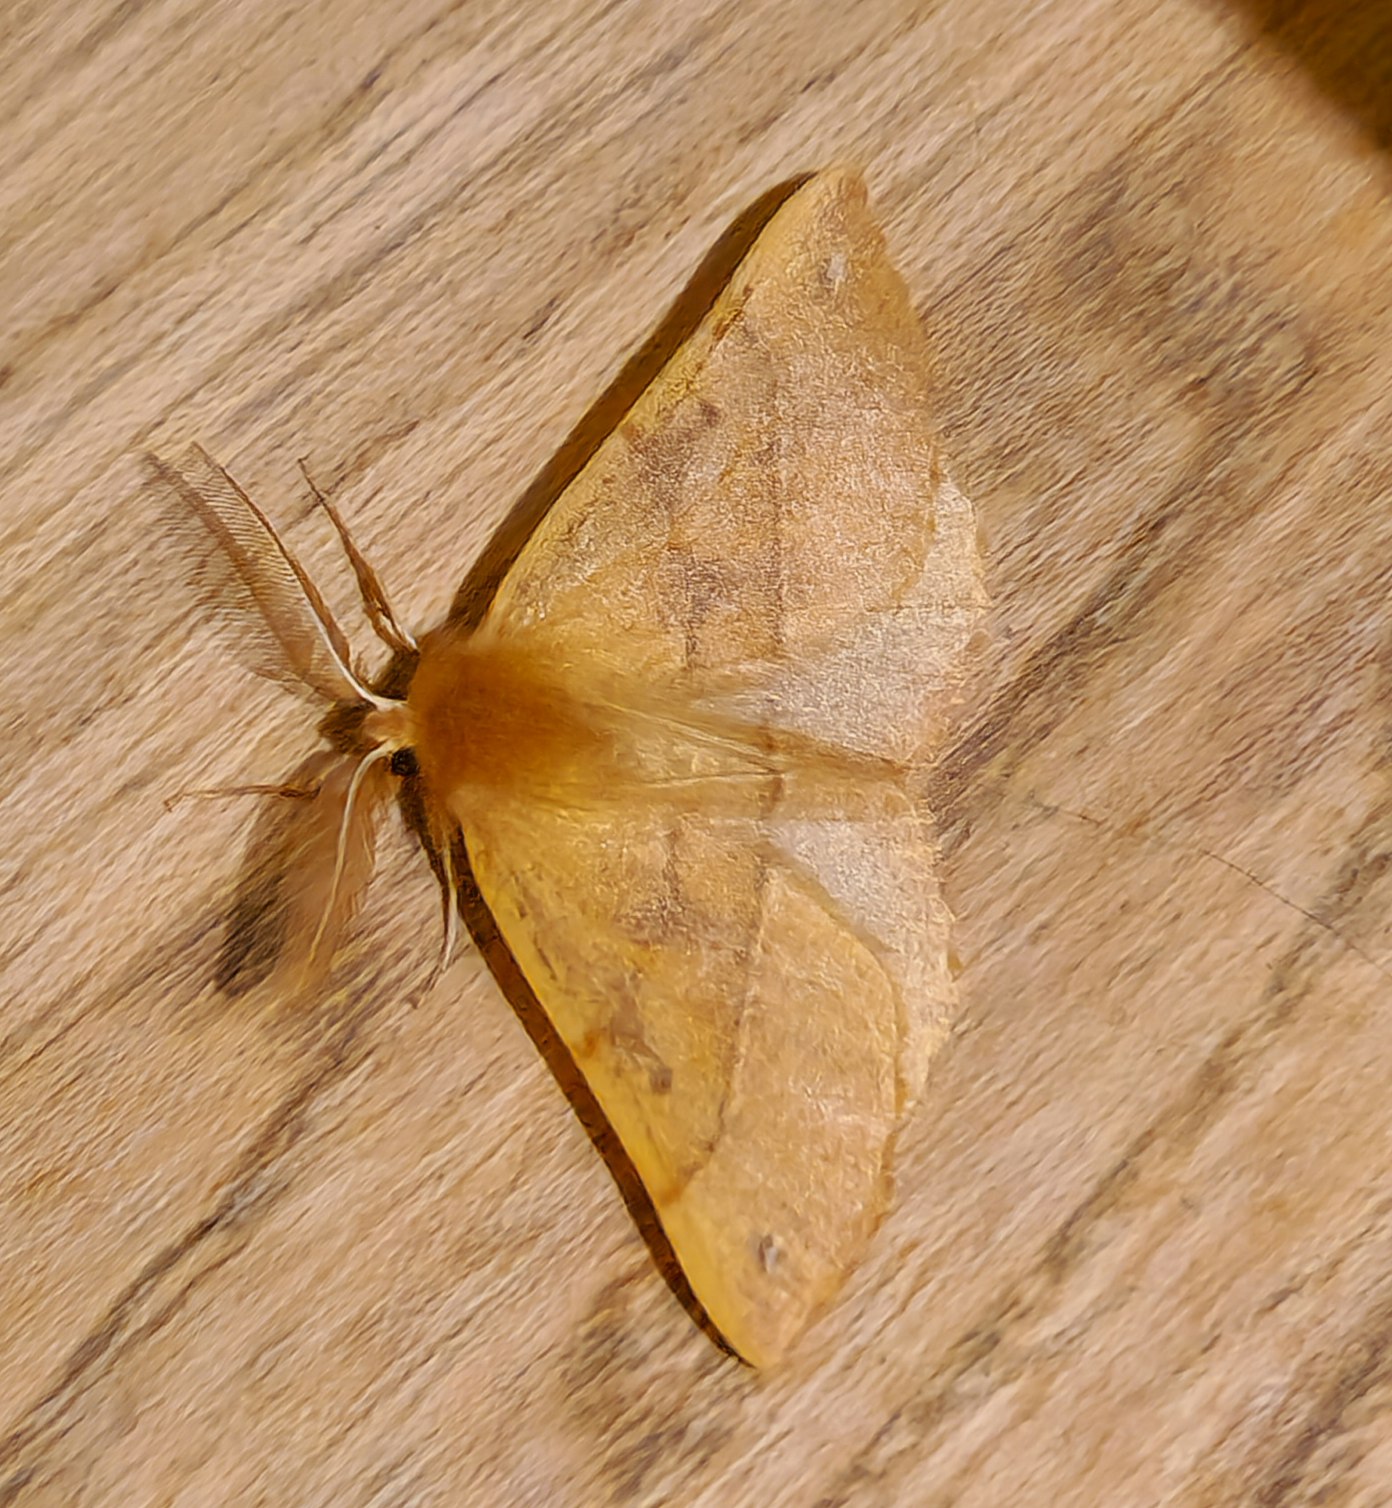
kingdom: Animalia
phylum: Arthropoda
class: Insecta
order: Lepidoptera
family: Geometridae
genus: Colotois
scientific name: Colotois pennaria
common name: Løvfaldsmåler
